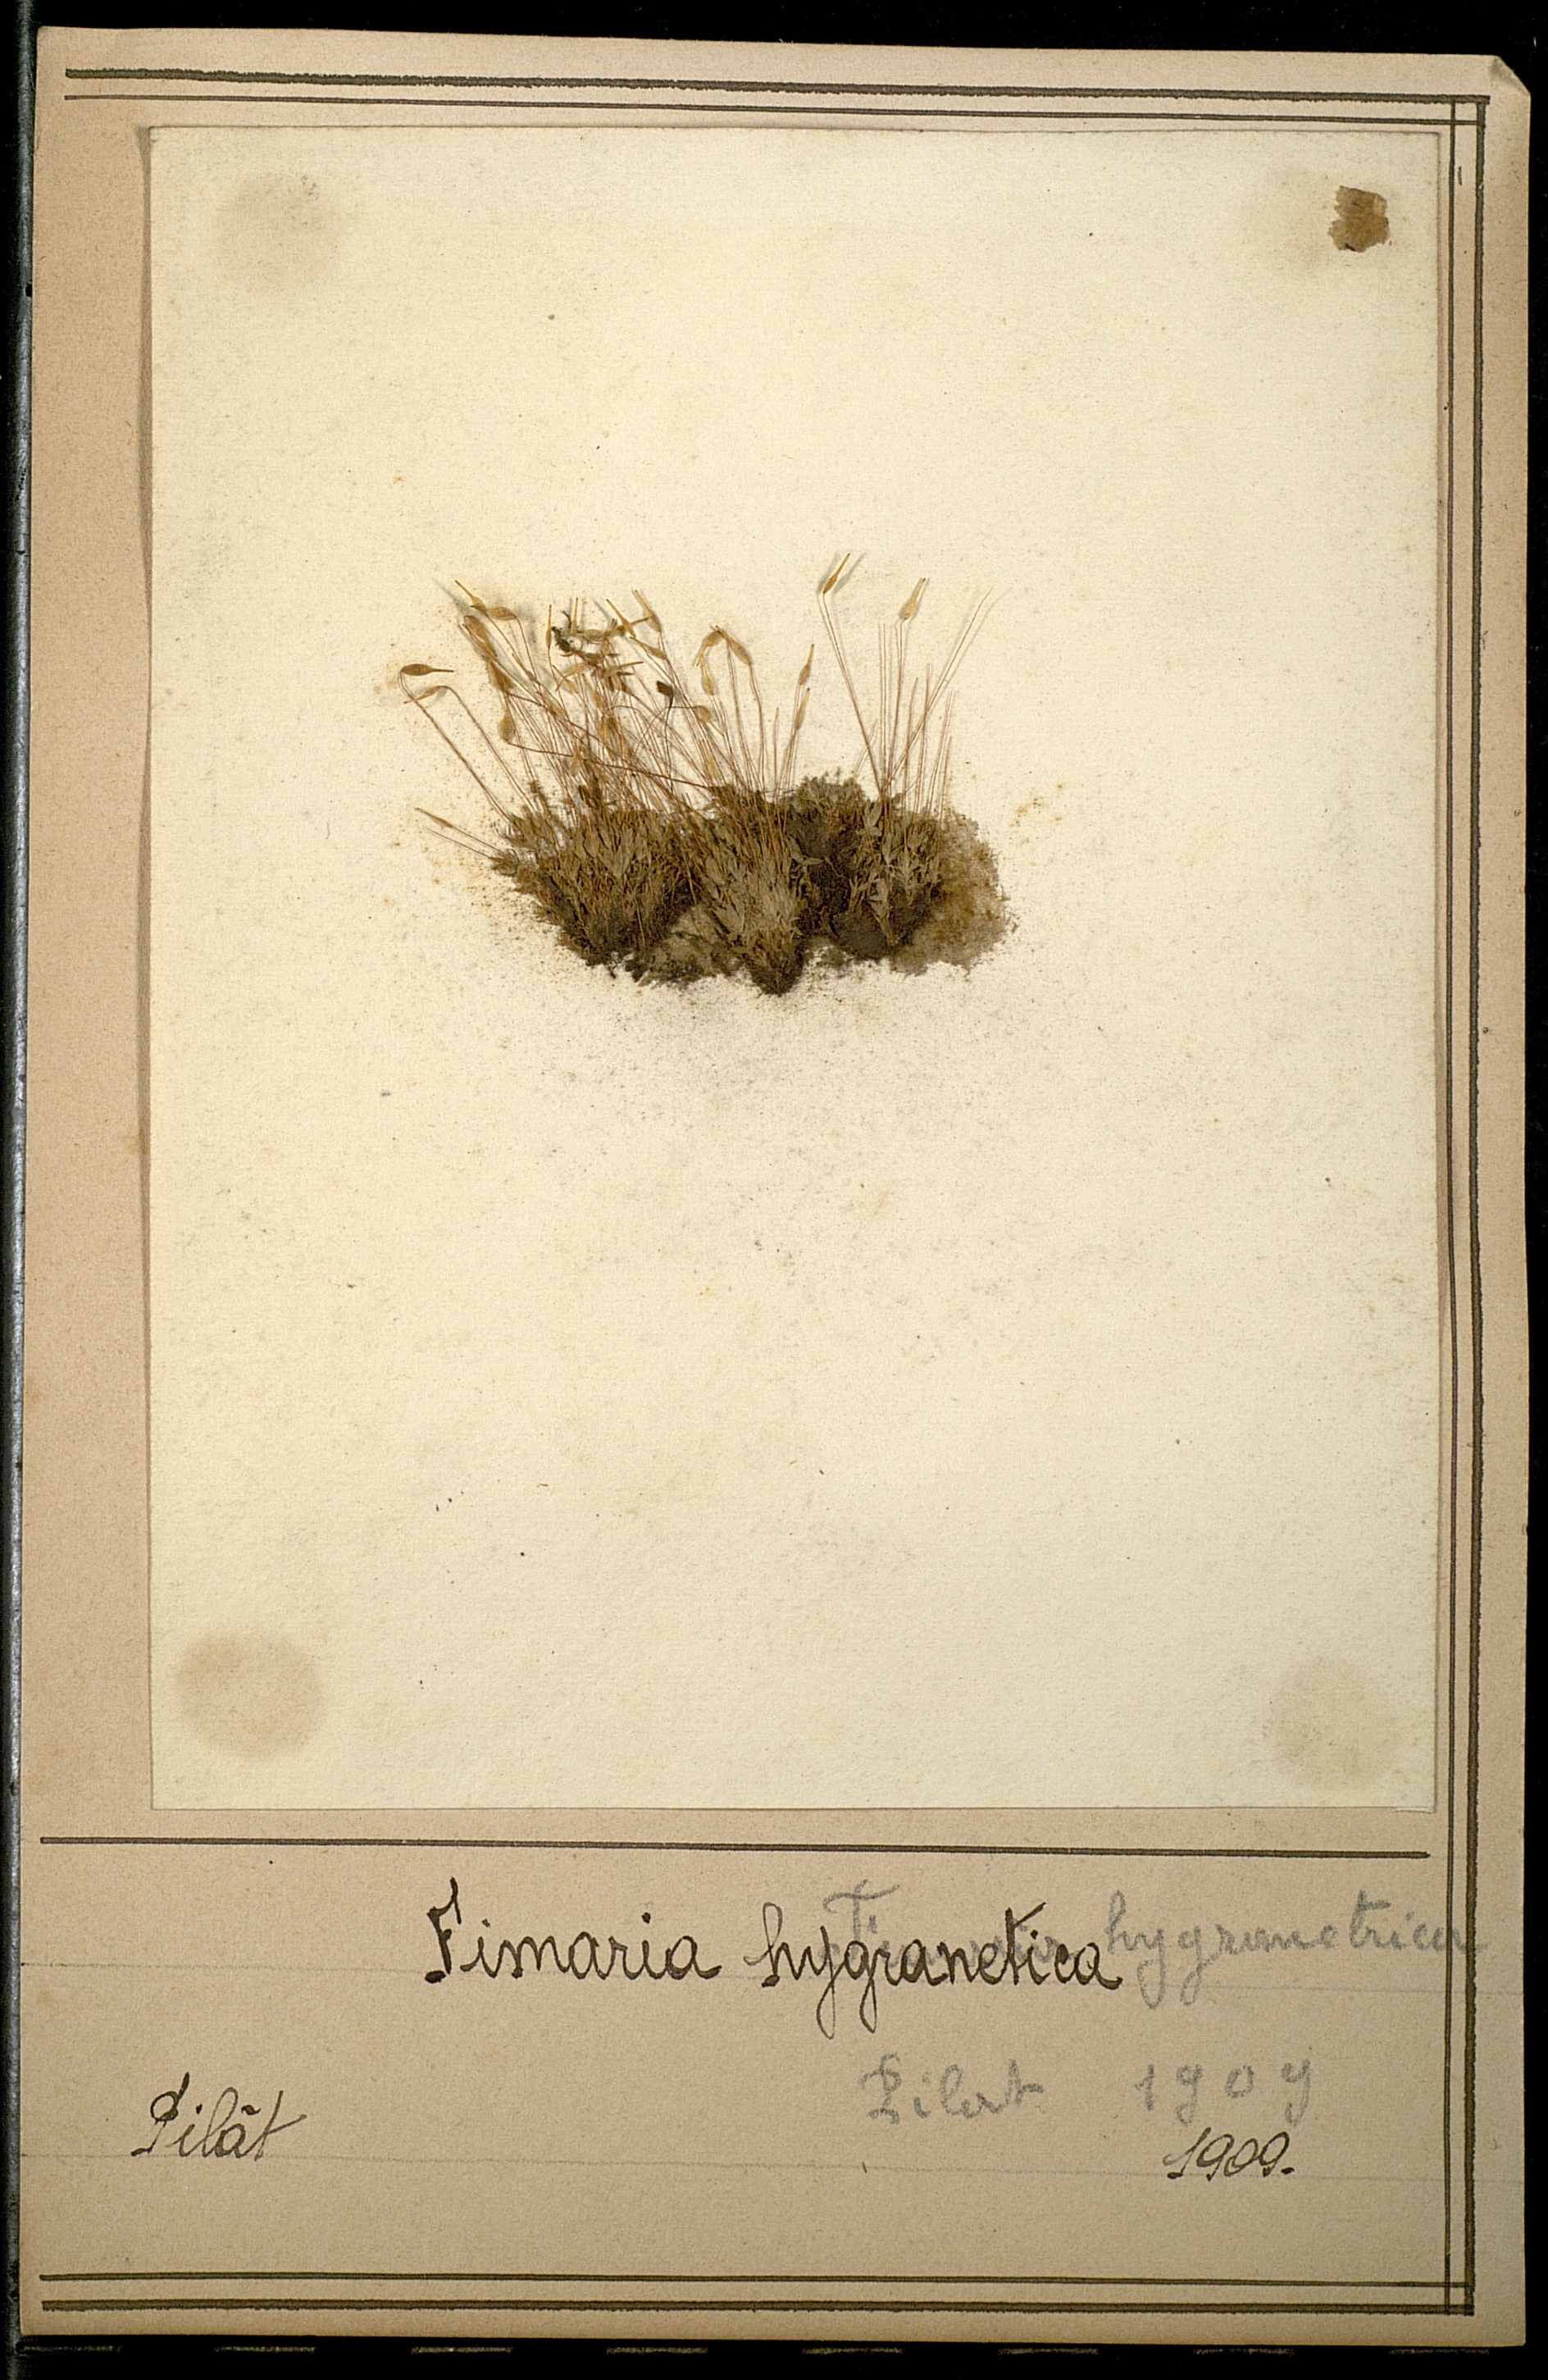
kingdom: Plantae
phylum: Bryophyta
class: Bryopsida
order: Funariales
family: Funariaceae
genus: Funaria
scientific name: Funaria hygrometrica
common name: Common cord moss
